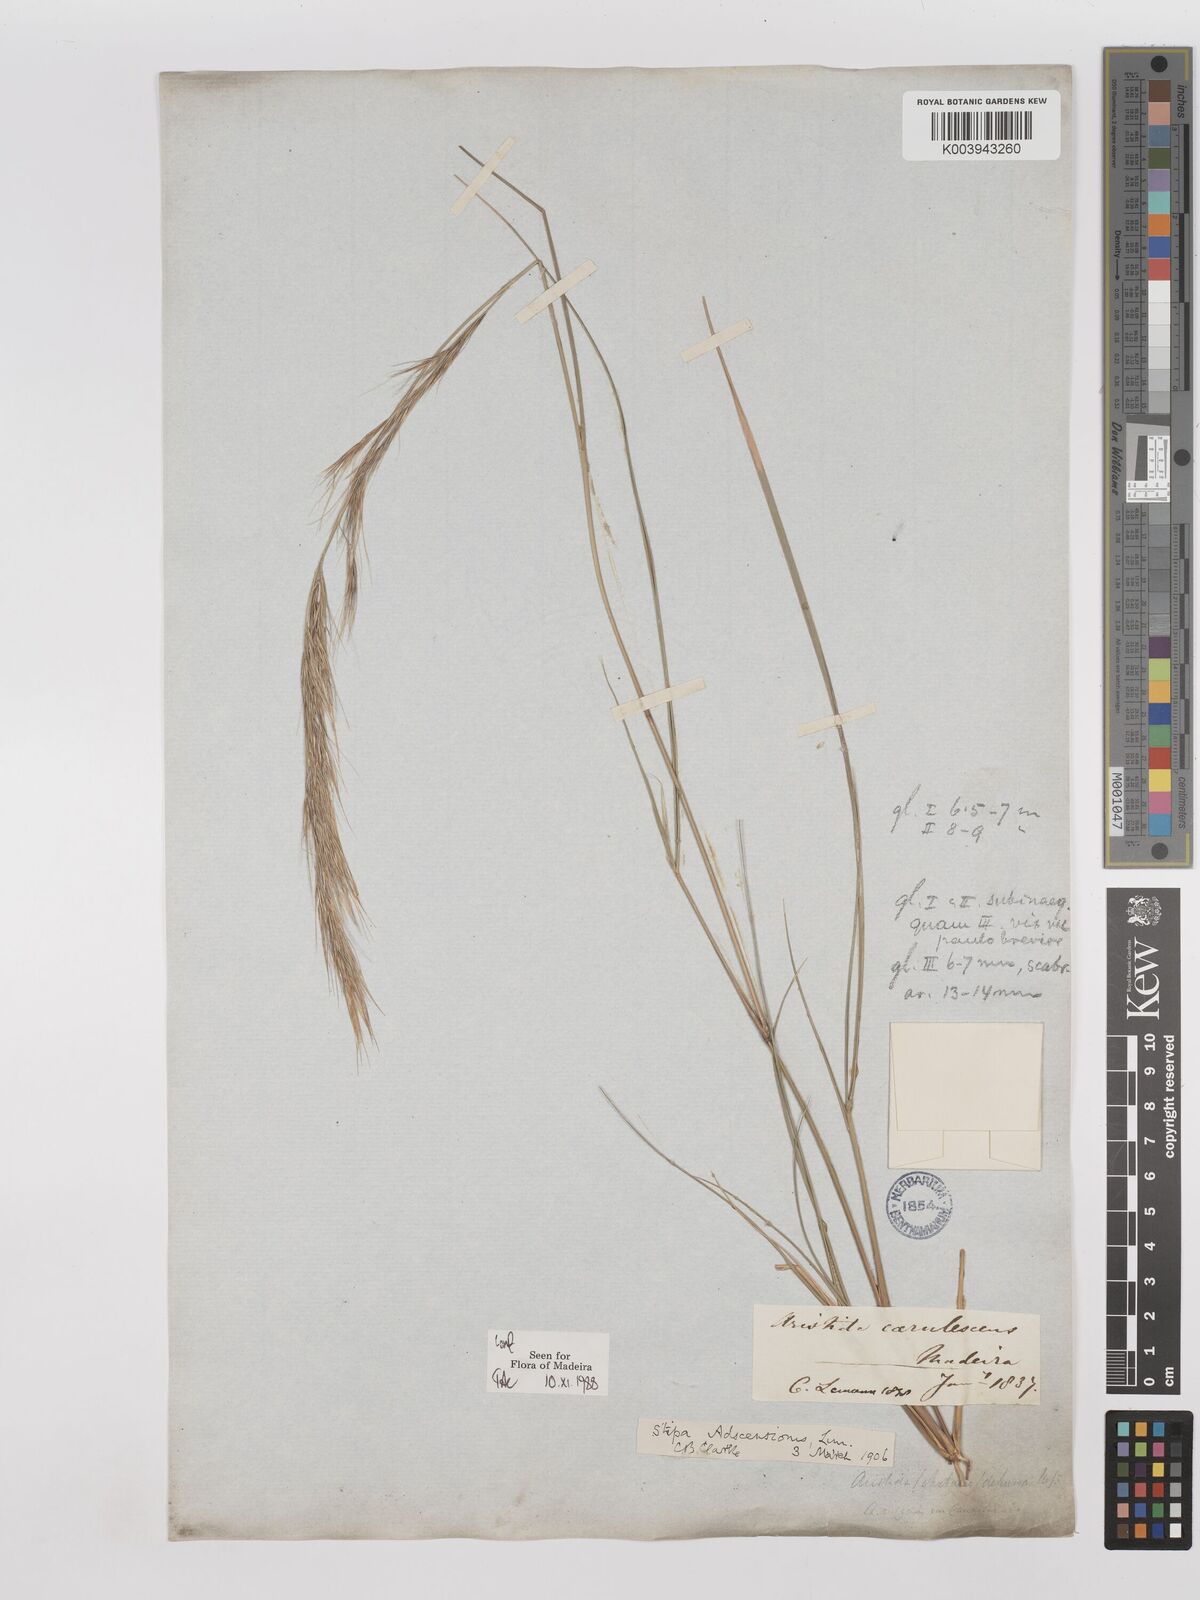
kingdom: Plantae
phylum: Tracheophyta
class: Liliopsida
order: Poales
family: Poaceae
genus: Aristida
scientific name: Aristida adscensionis
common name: Sixweeks threeawn
